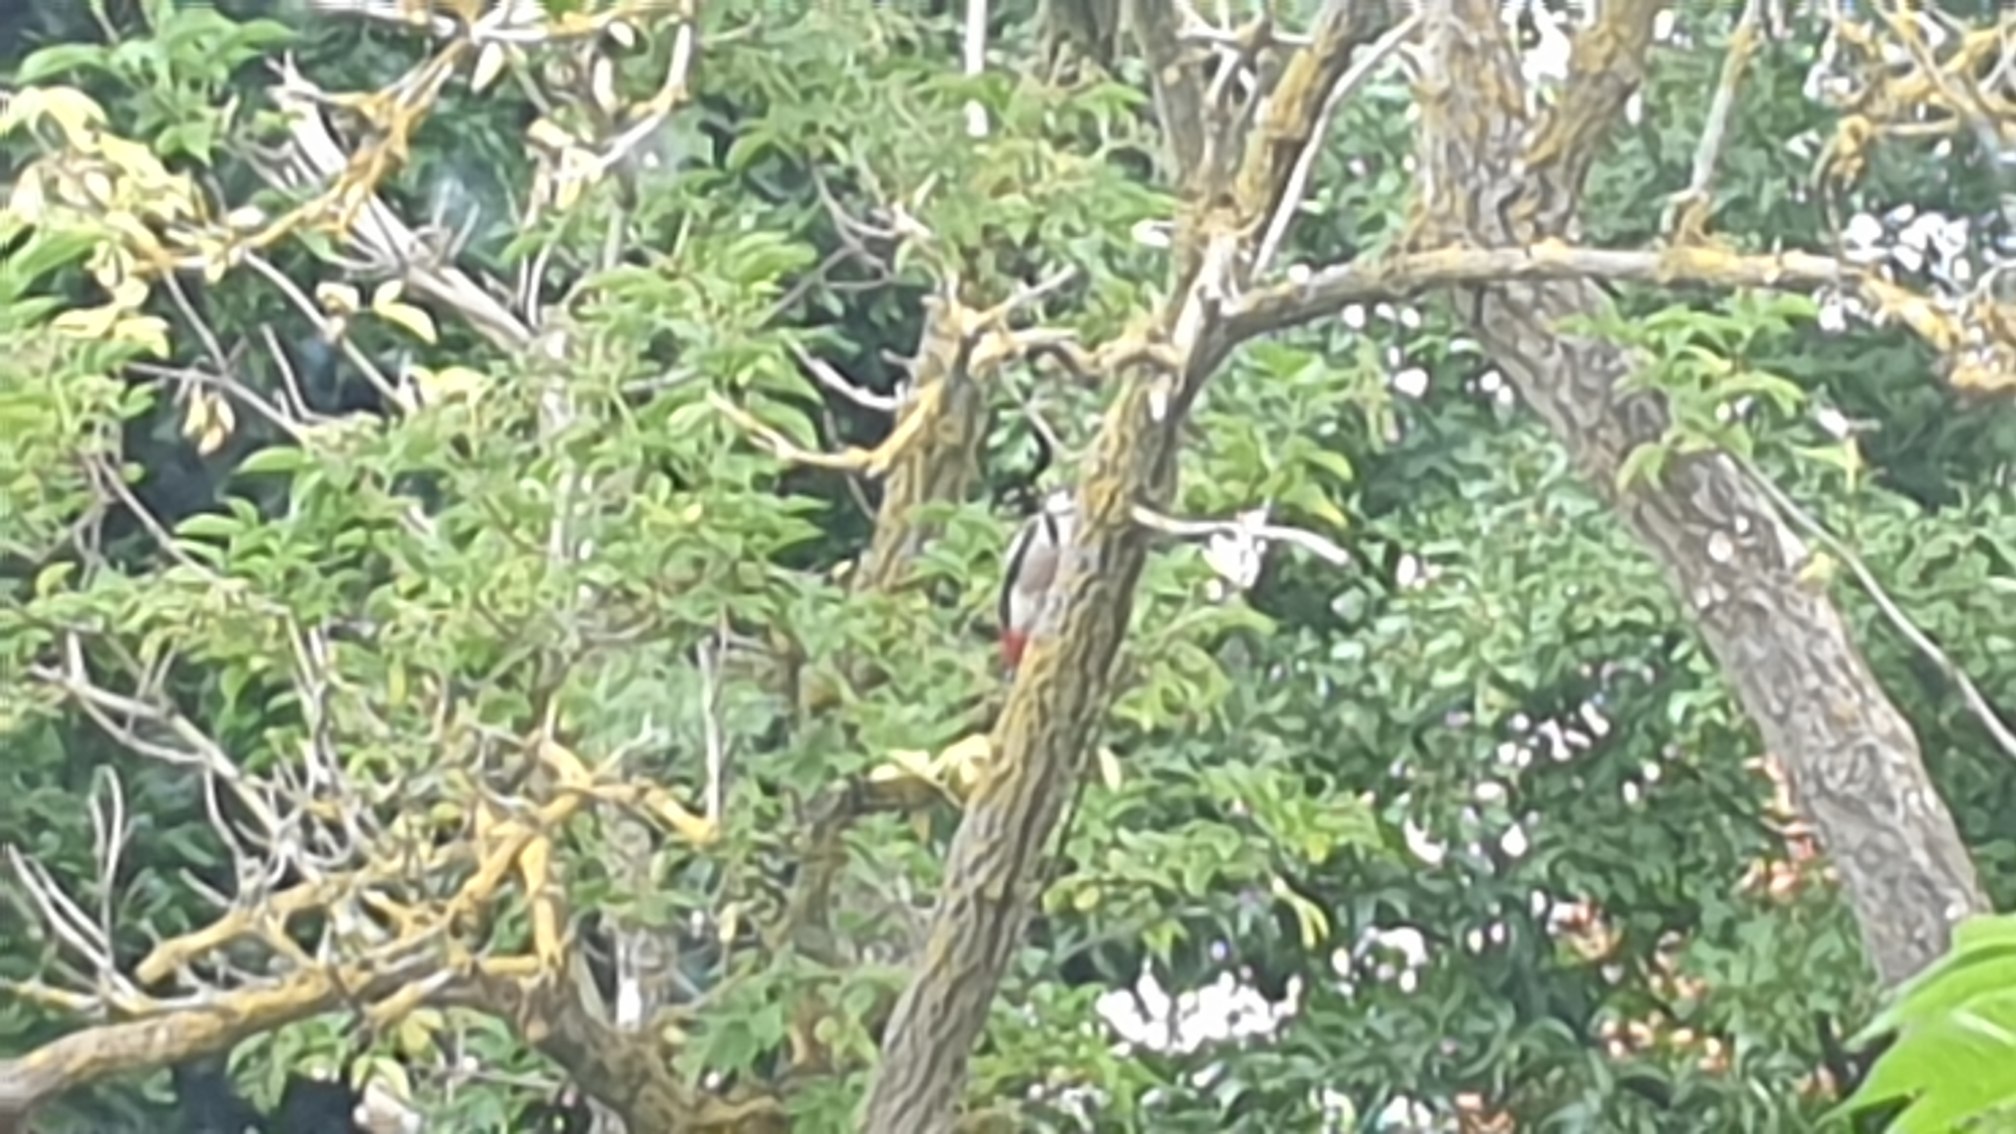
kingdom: Animalia
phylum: Chordata
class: Aves
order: Piciformes
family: Picidae
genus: Dendrocopos
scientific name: Dendrocopos major
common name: Stor flagspætte
